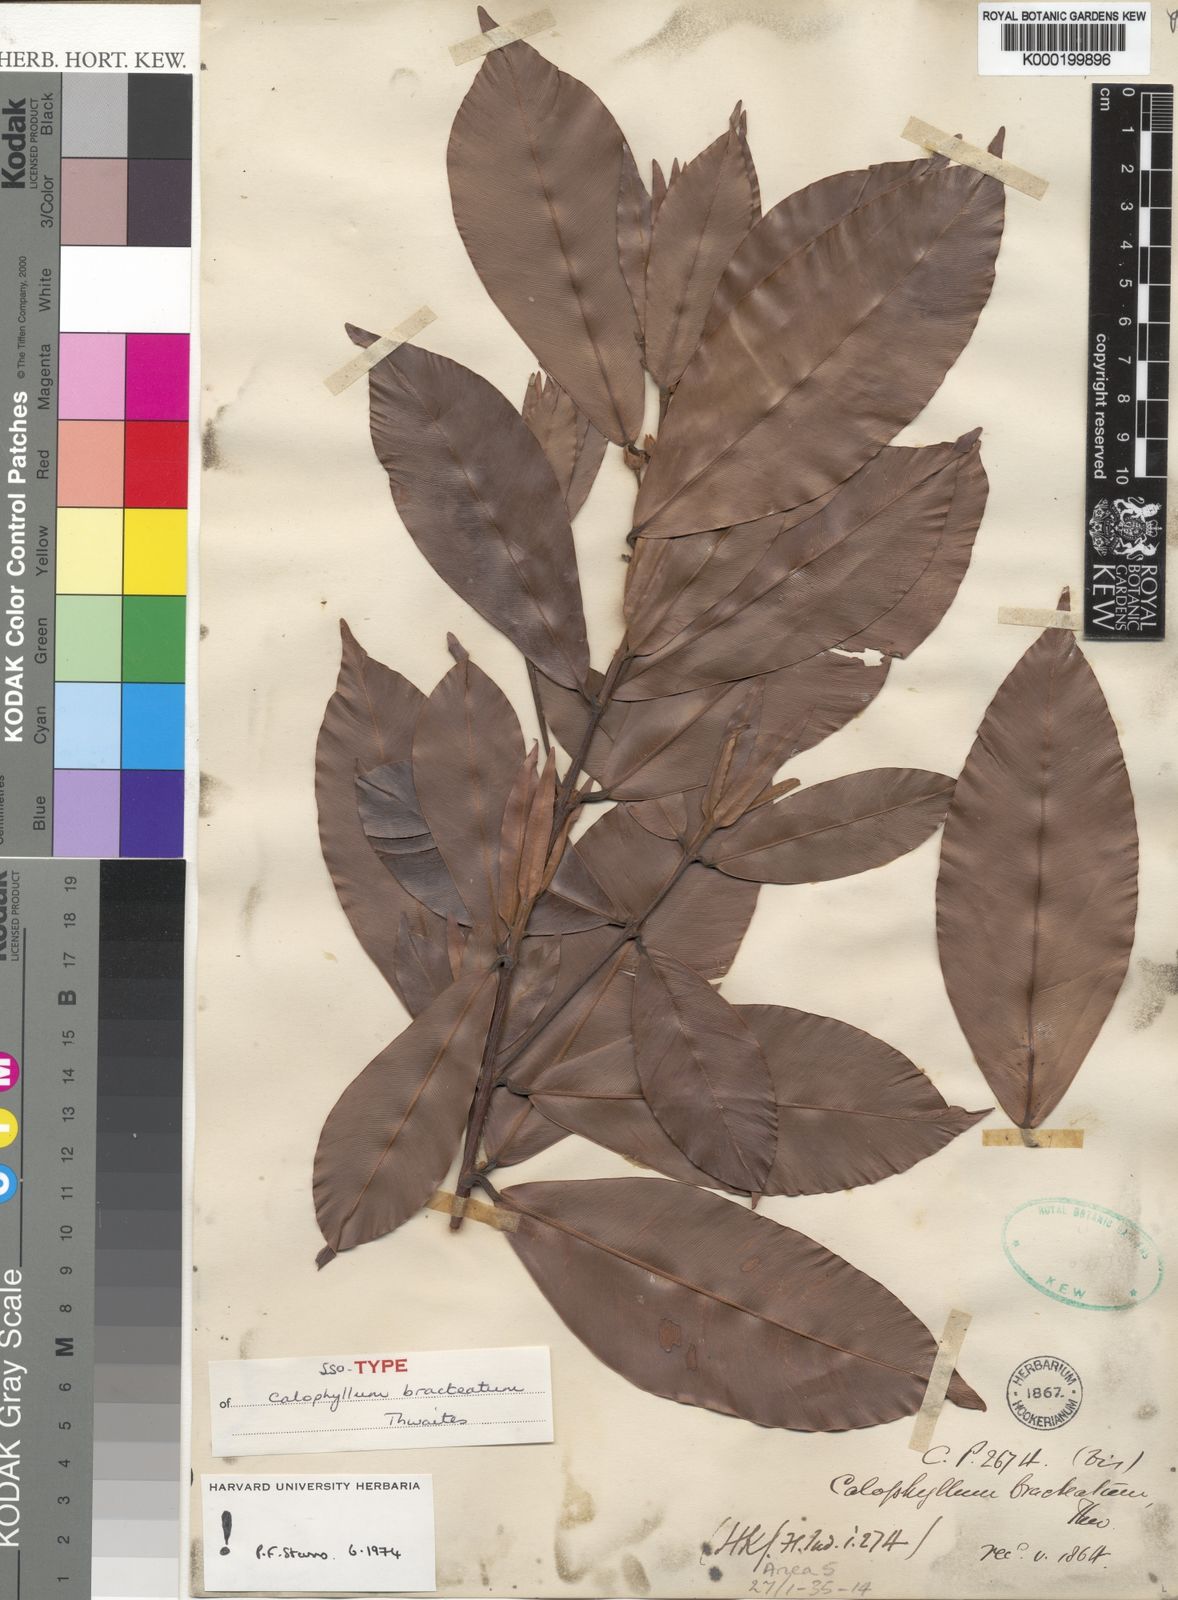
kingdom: Plantae
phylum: Tracheophyta
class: Magnoliopsida
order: Malpighiales
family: Calophyllaceae
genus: Calophyllum
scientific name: Calophyllum bracteatum
